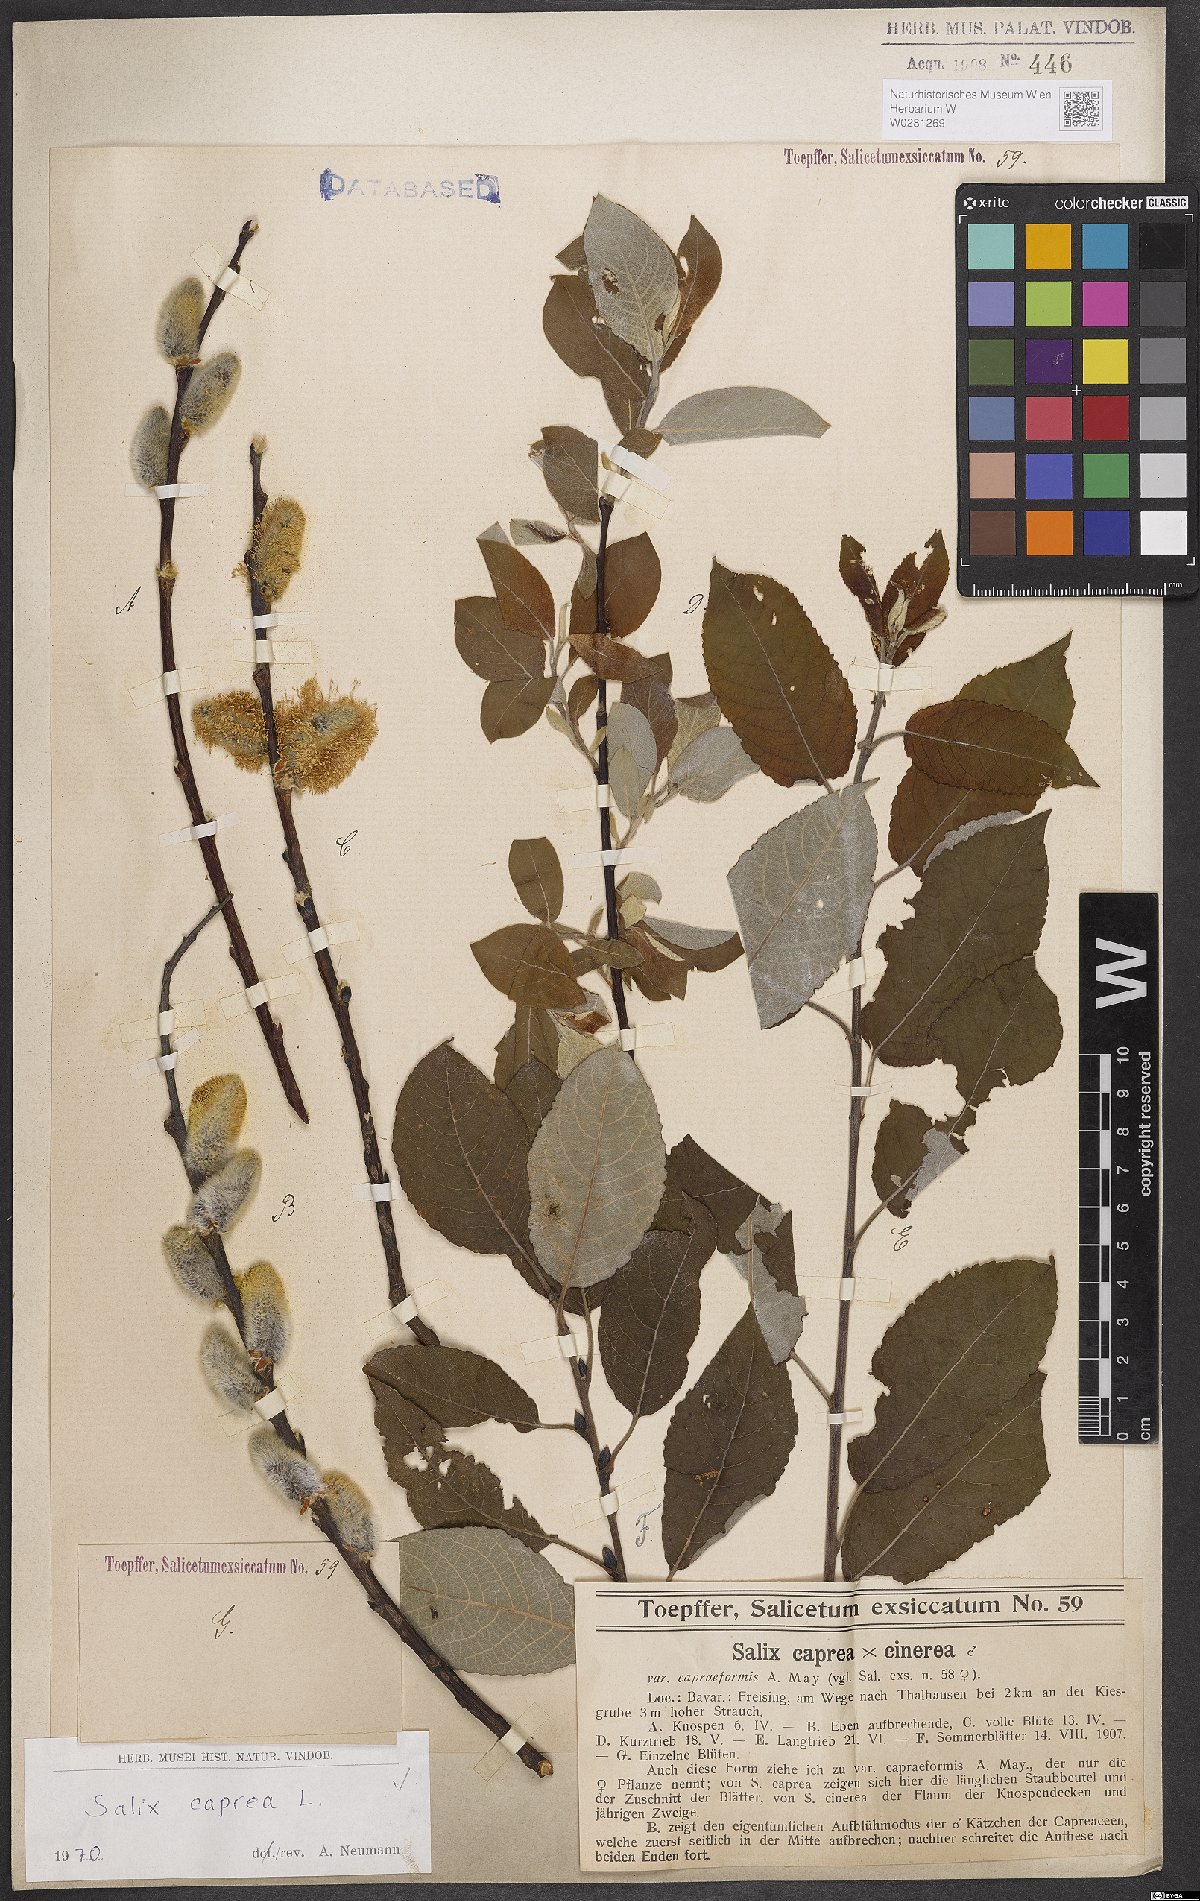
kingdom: Plantae
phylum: Tracheophyta
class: Magnoliopsida
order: Malpighiales
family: Salicaceae
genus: Salix
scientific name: Salix caprea
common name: Goat willow
